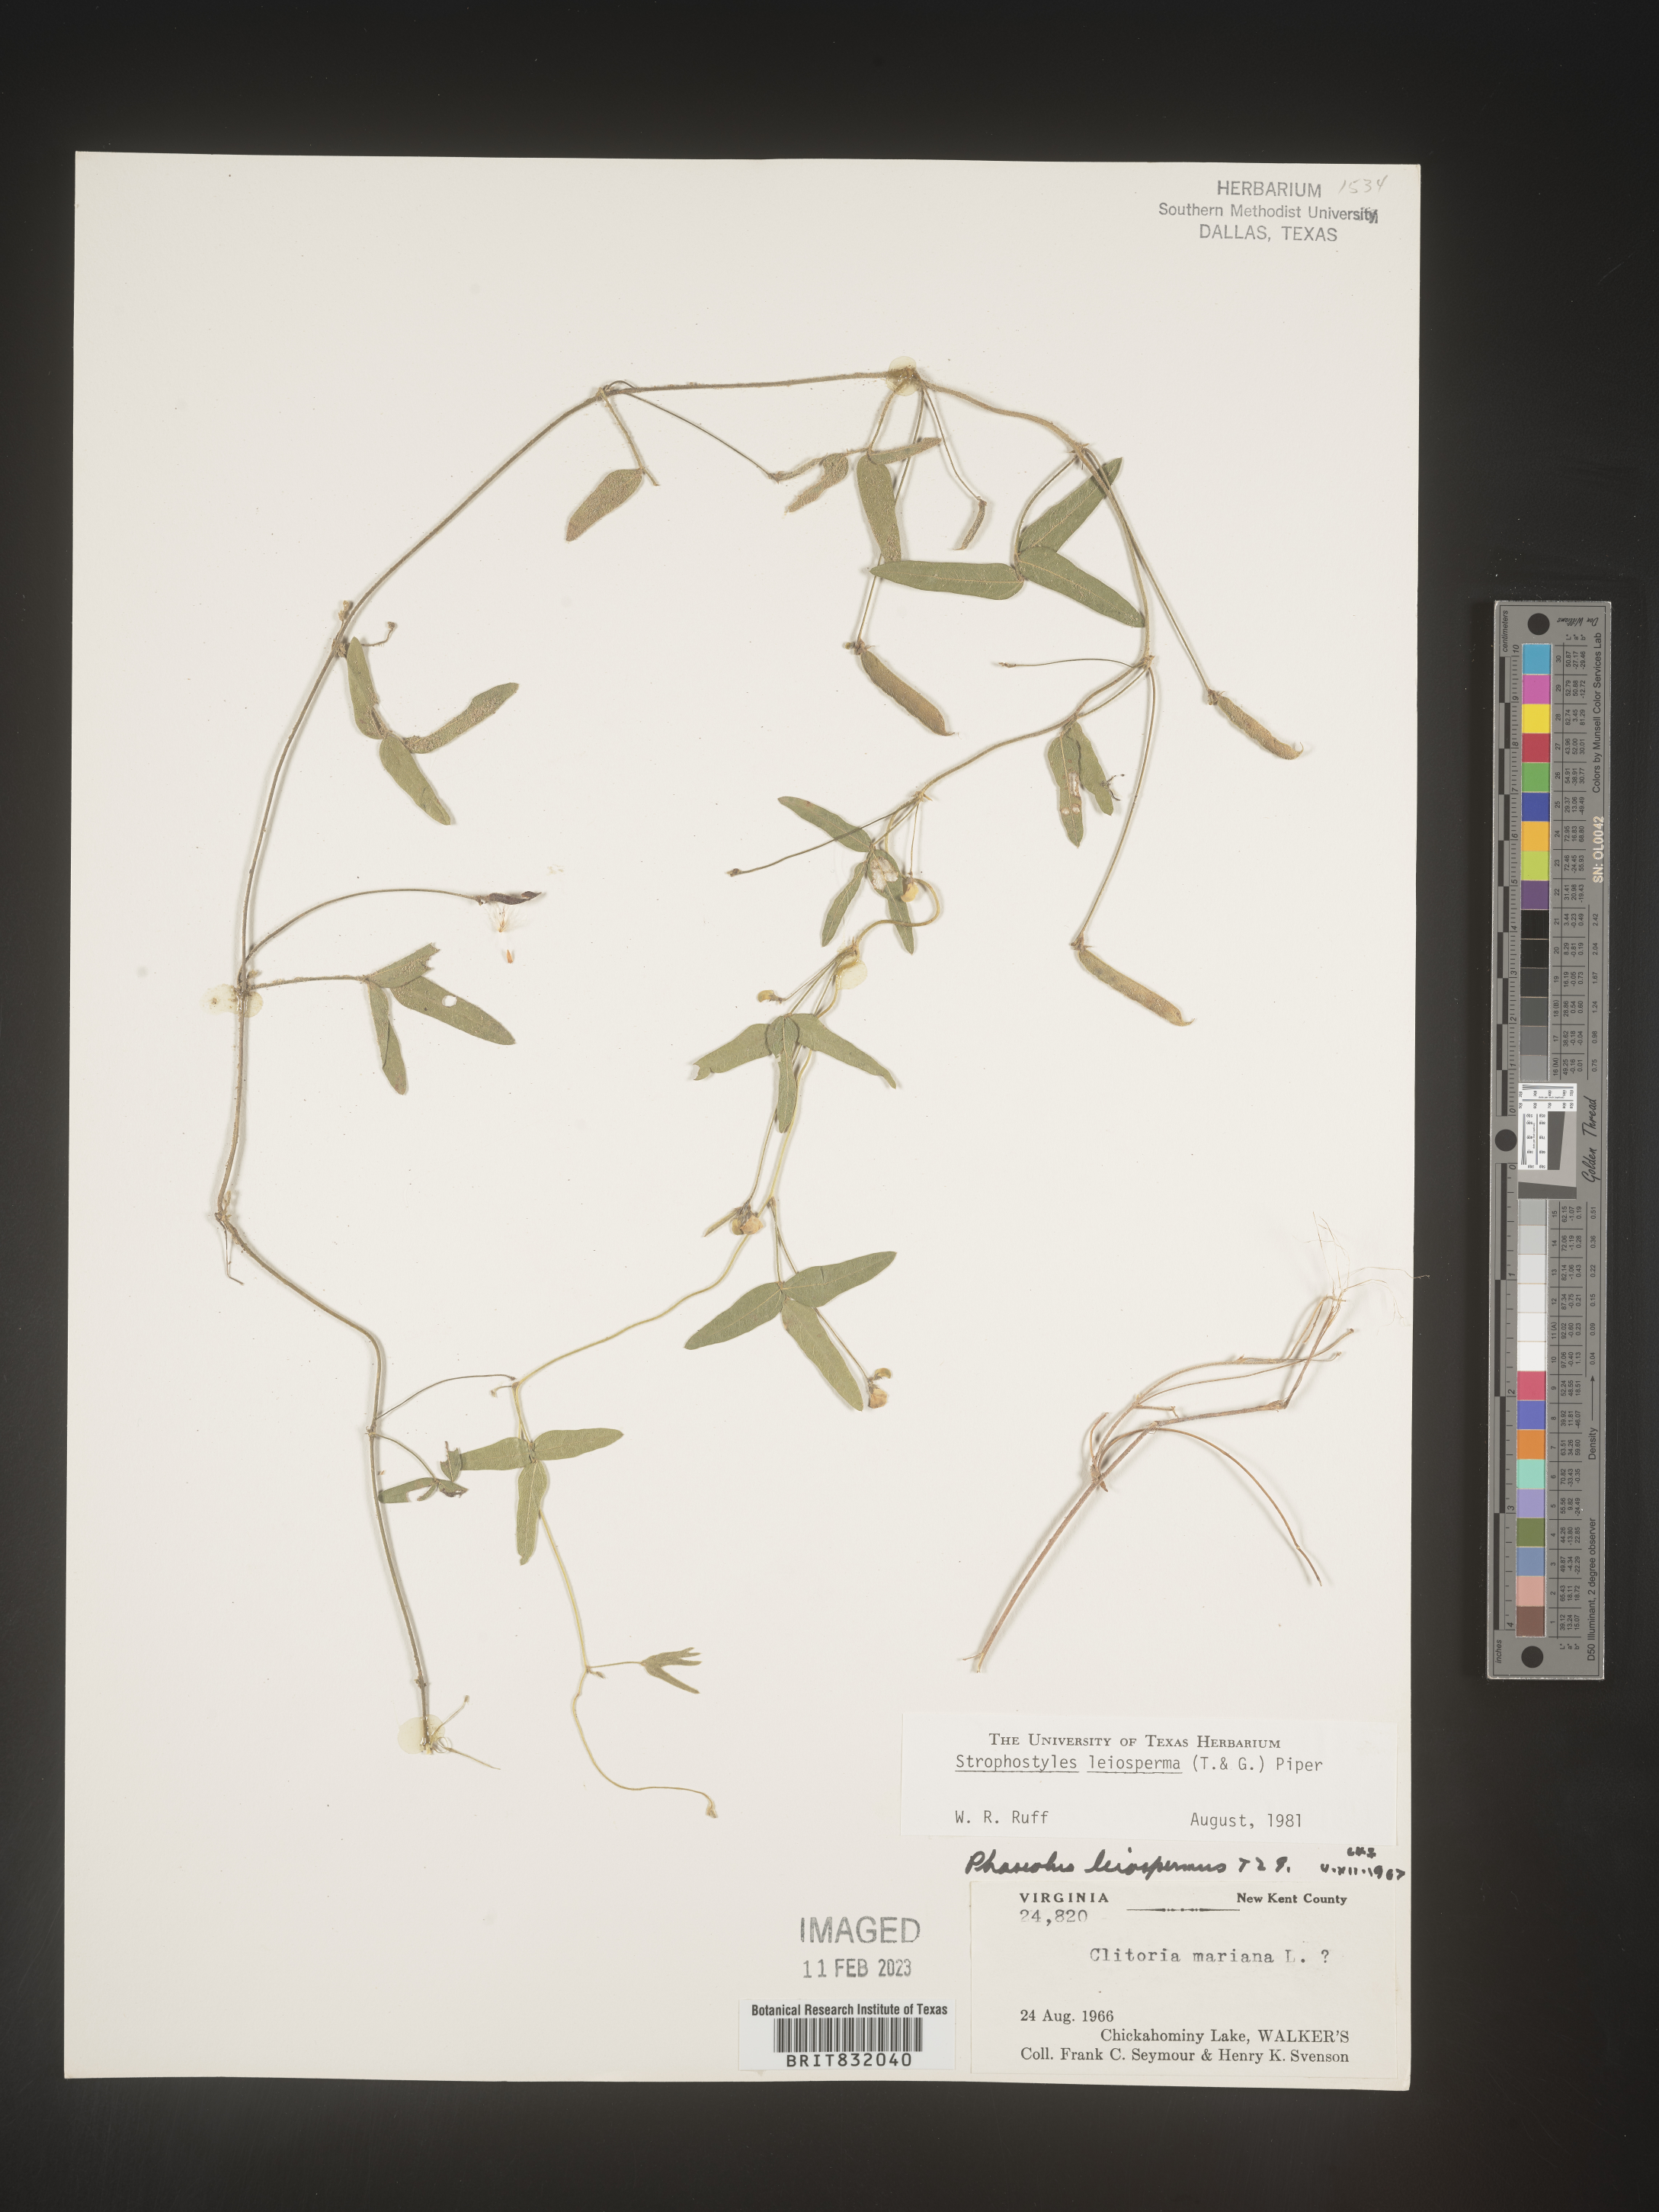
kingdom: Plantae
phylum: Tracheophyta
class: Magnoliopsida
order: Fabales
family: Fabaceae
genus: Strophostyles
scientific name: Strophostyles leiosperma
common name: Smooth-seed wild bean
